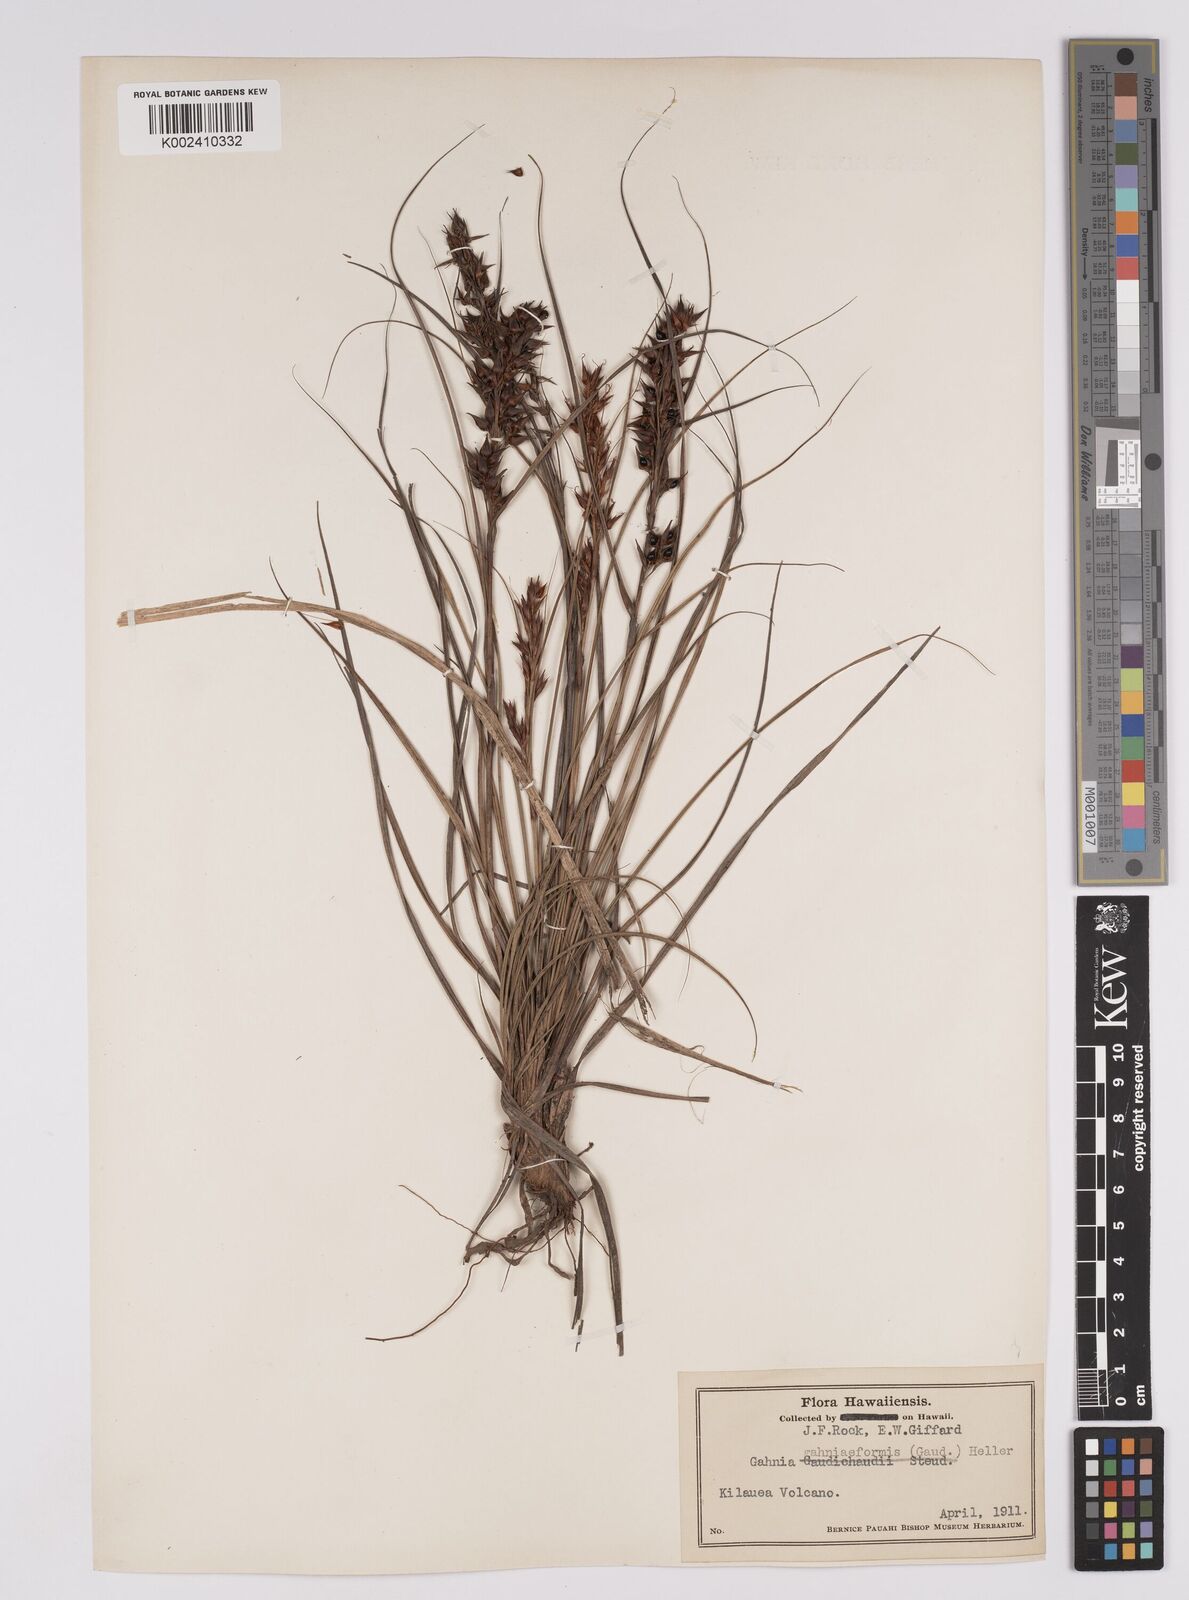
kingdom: Plantae
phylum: Tracheophyta
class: Liliopsida
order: Poales
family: Cyperaceae
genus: Morelotia
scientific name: Morelotia gahniiformis
